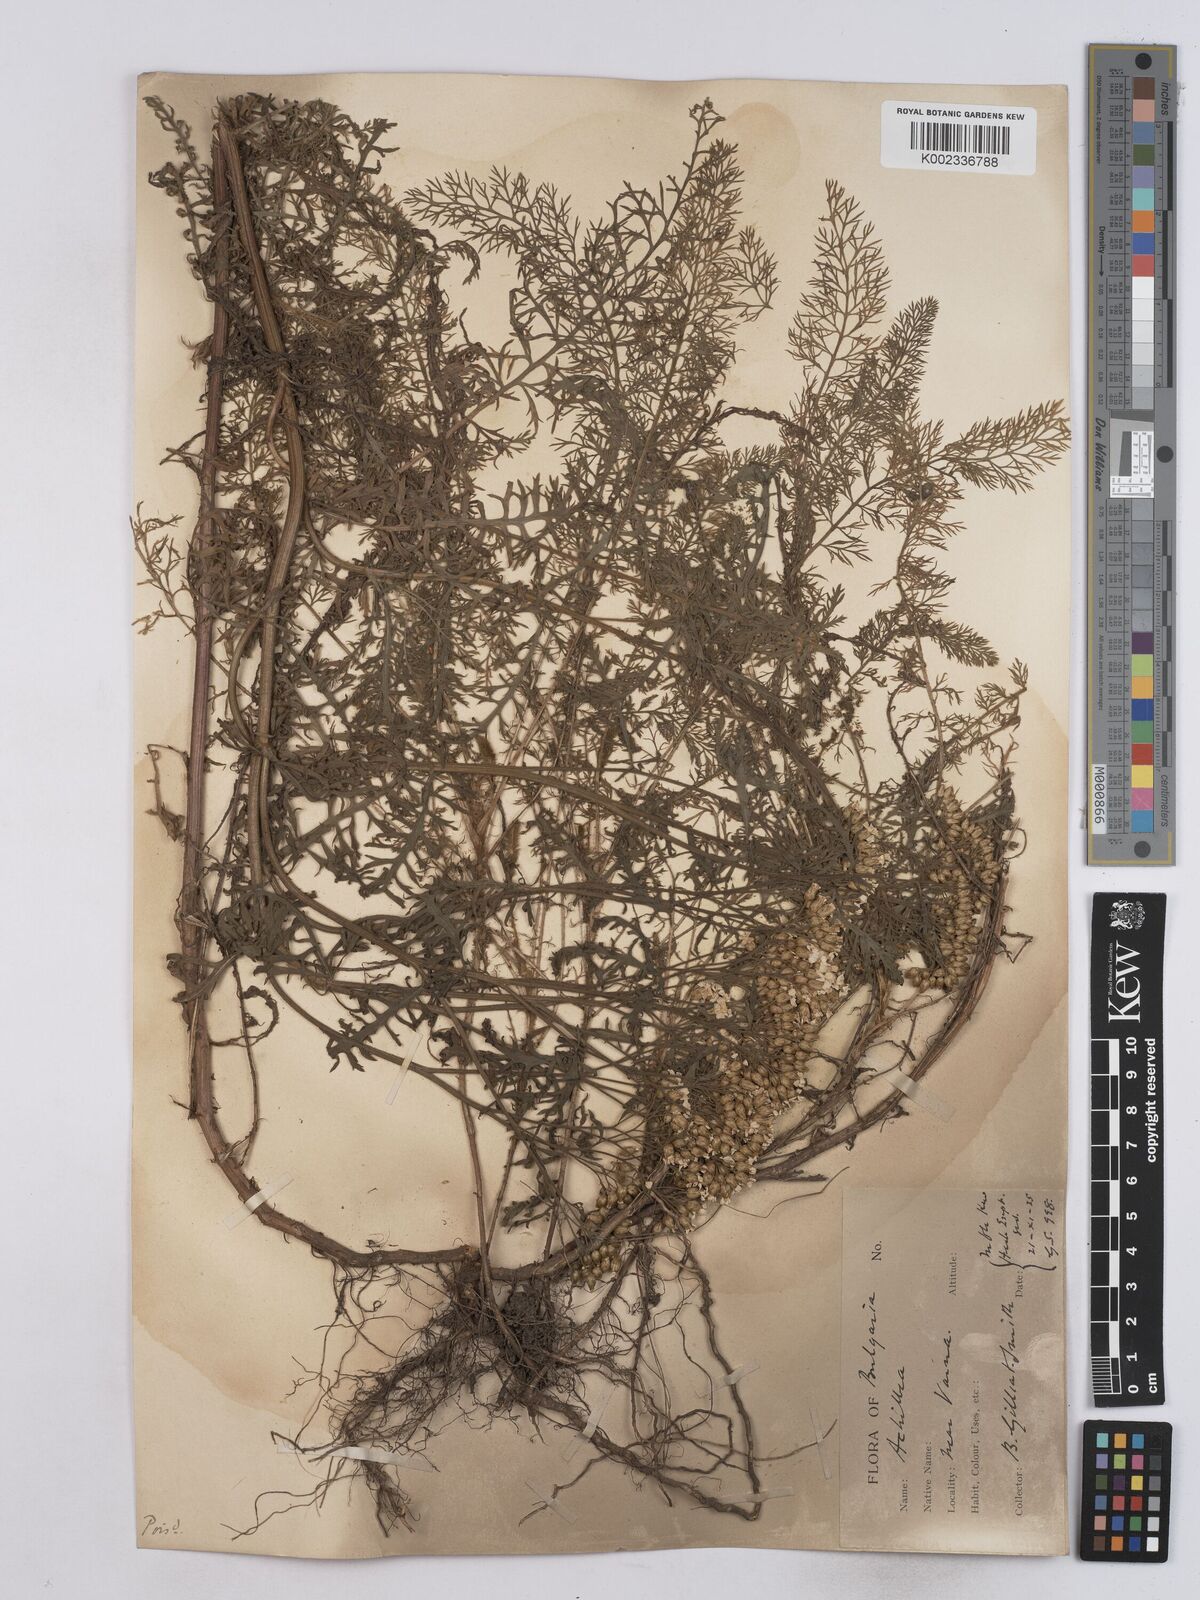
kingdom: Plantae
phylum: Tracheophyta
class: Magnoliopsida
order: Asterales
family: Asteraceae
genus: Achillea
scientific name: Achillea crithmifolia
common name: Yarrow
